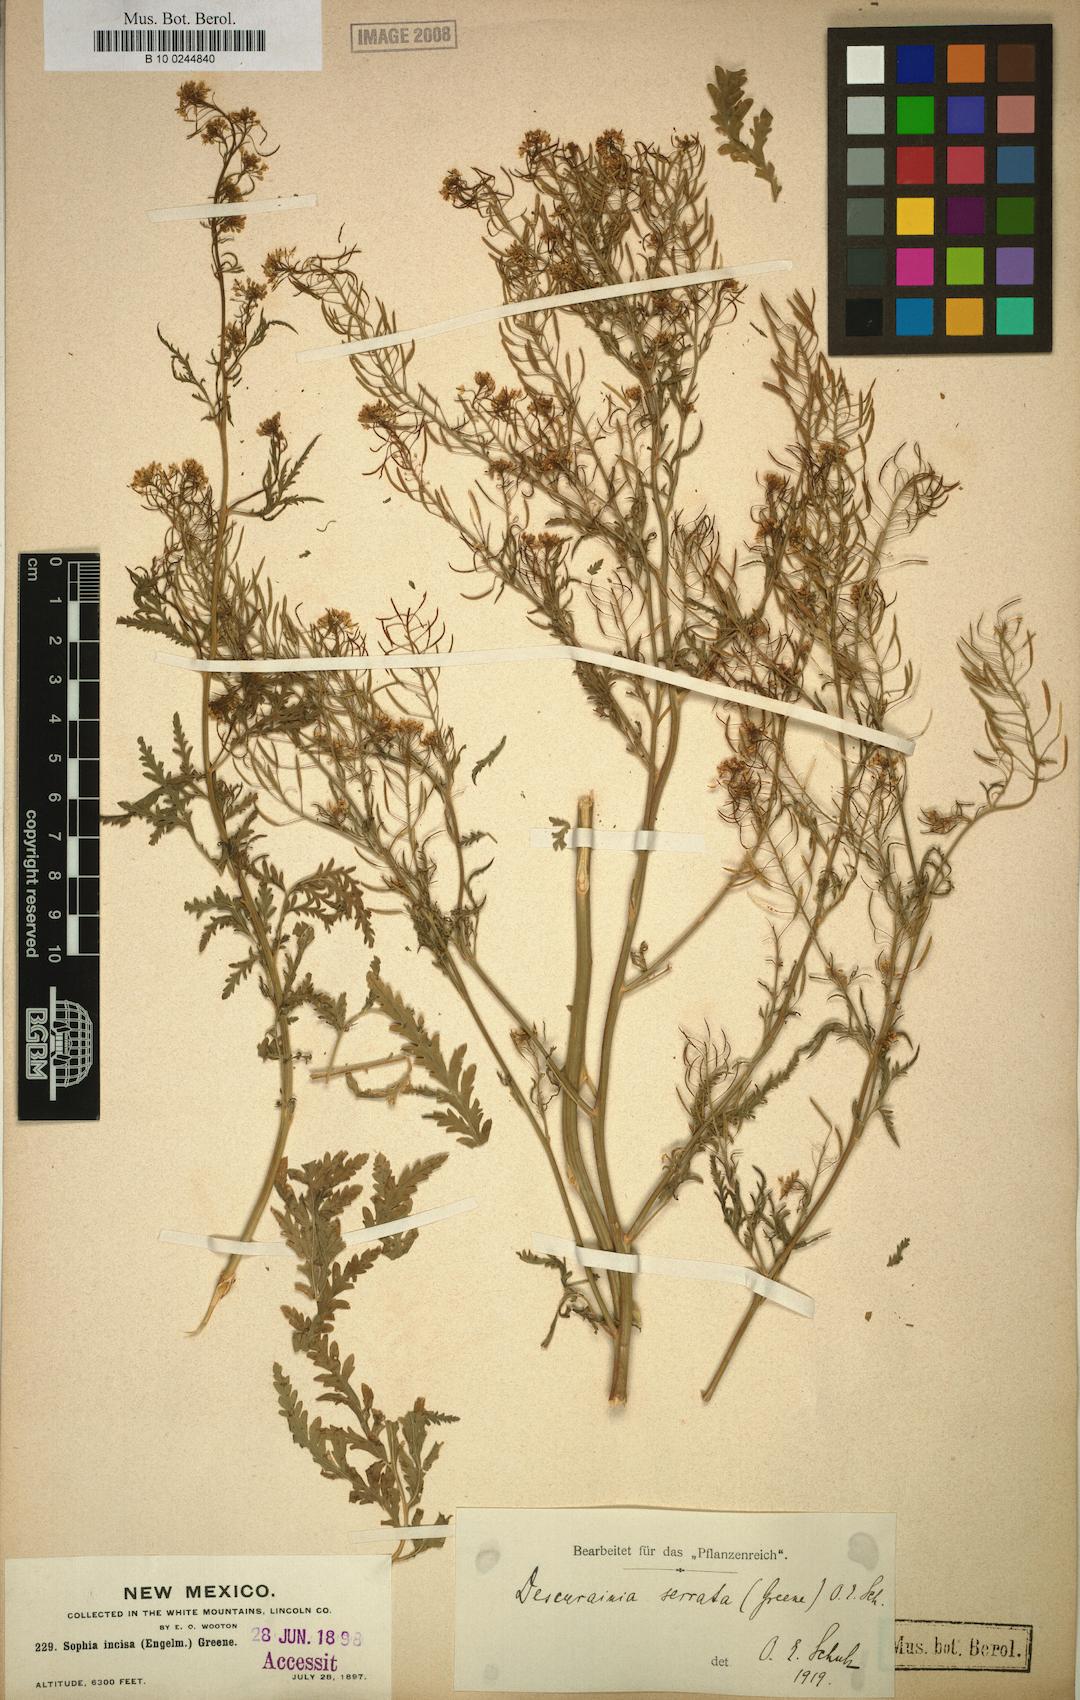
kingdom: Plantae
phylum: Tracheophyta
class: Magnoliopsida
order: Brassicales
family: Brassicaceae
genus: Descurainia
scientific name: Descurainia incisa
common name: Cut-leaved tansy mustard
